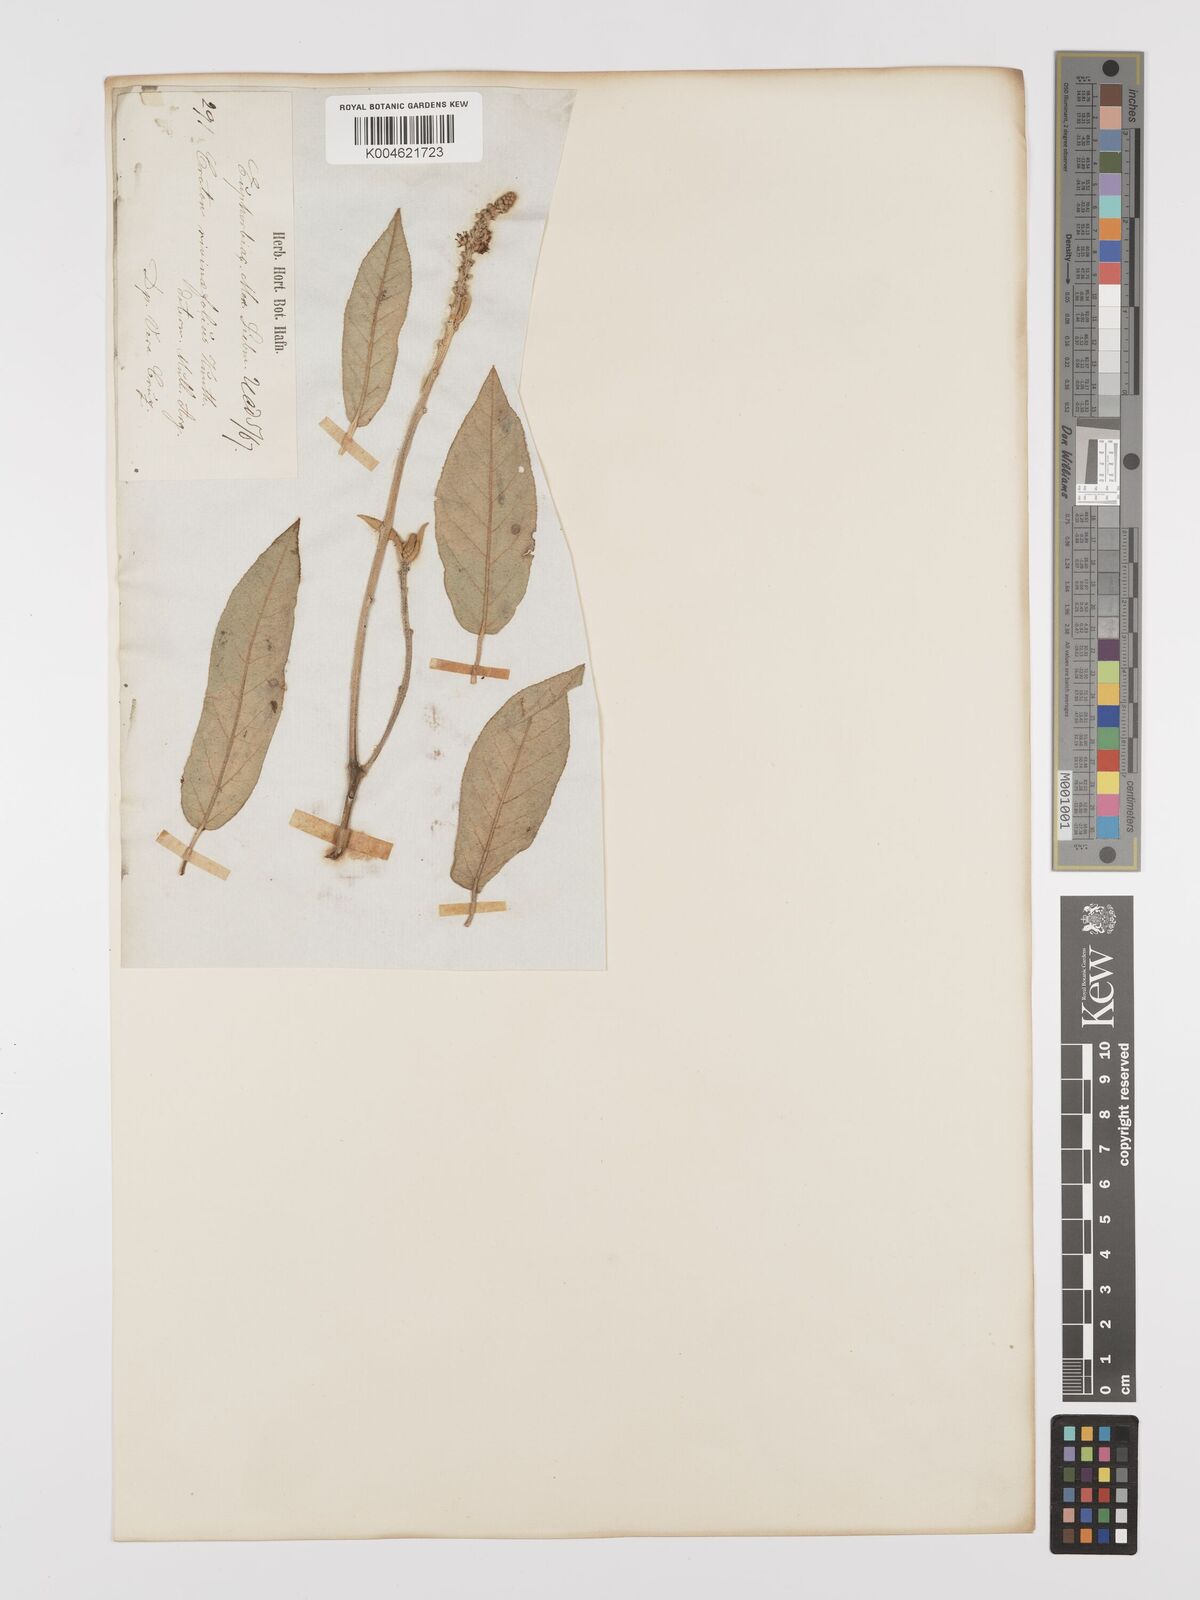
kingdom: Plantae
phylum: Tracheophyta
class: Magnoliopsida
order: Malpighiales
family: Euphorbiaceae
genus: Croton
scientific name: Croton rivinifolius
